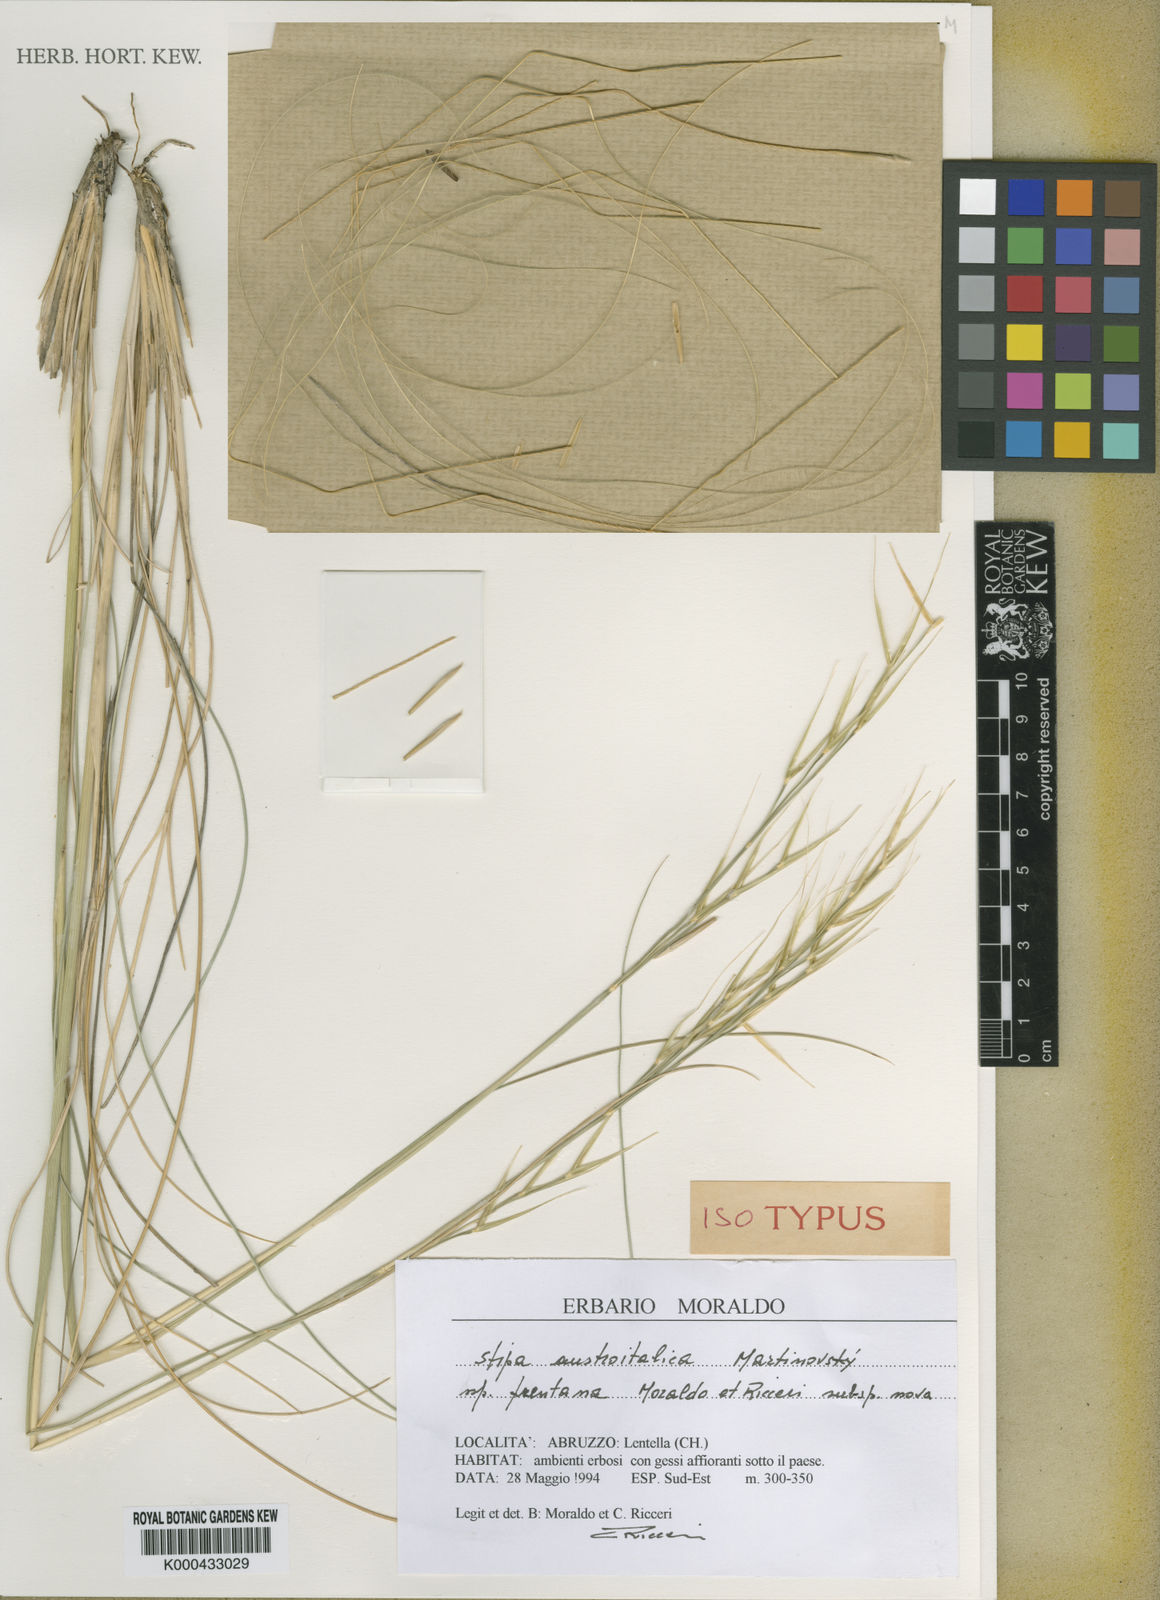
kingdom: Plantae
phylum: Tracheophyta
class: Liliopsida
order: Poales
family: Poaceae
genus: Stipa
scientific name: Stipa austroitalica
